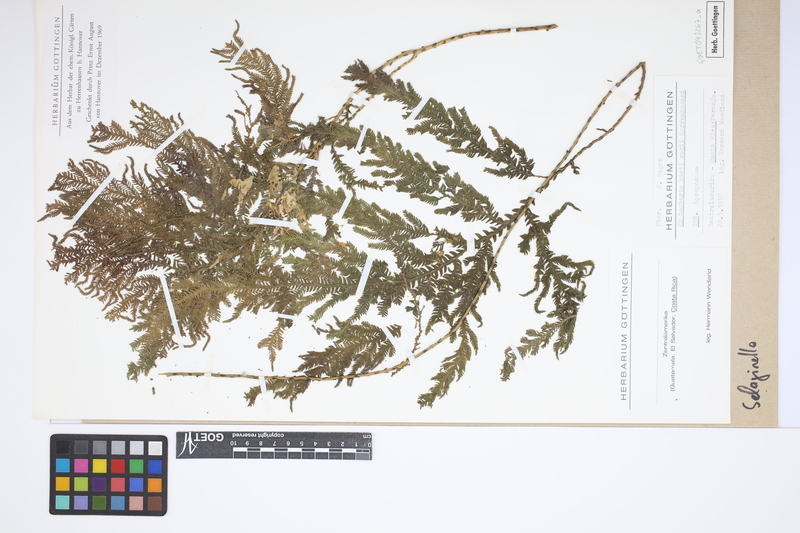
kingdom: Plantae
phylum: Tracheophyta
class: Lycopodiopsida
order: Selaginellales
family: Selaginellaceae
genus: Selaginella
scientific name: Selaginella
